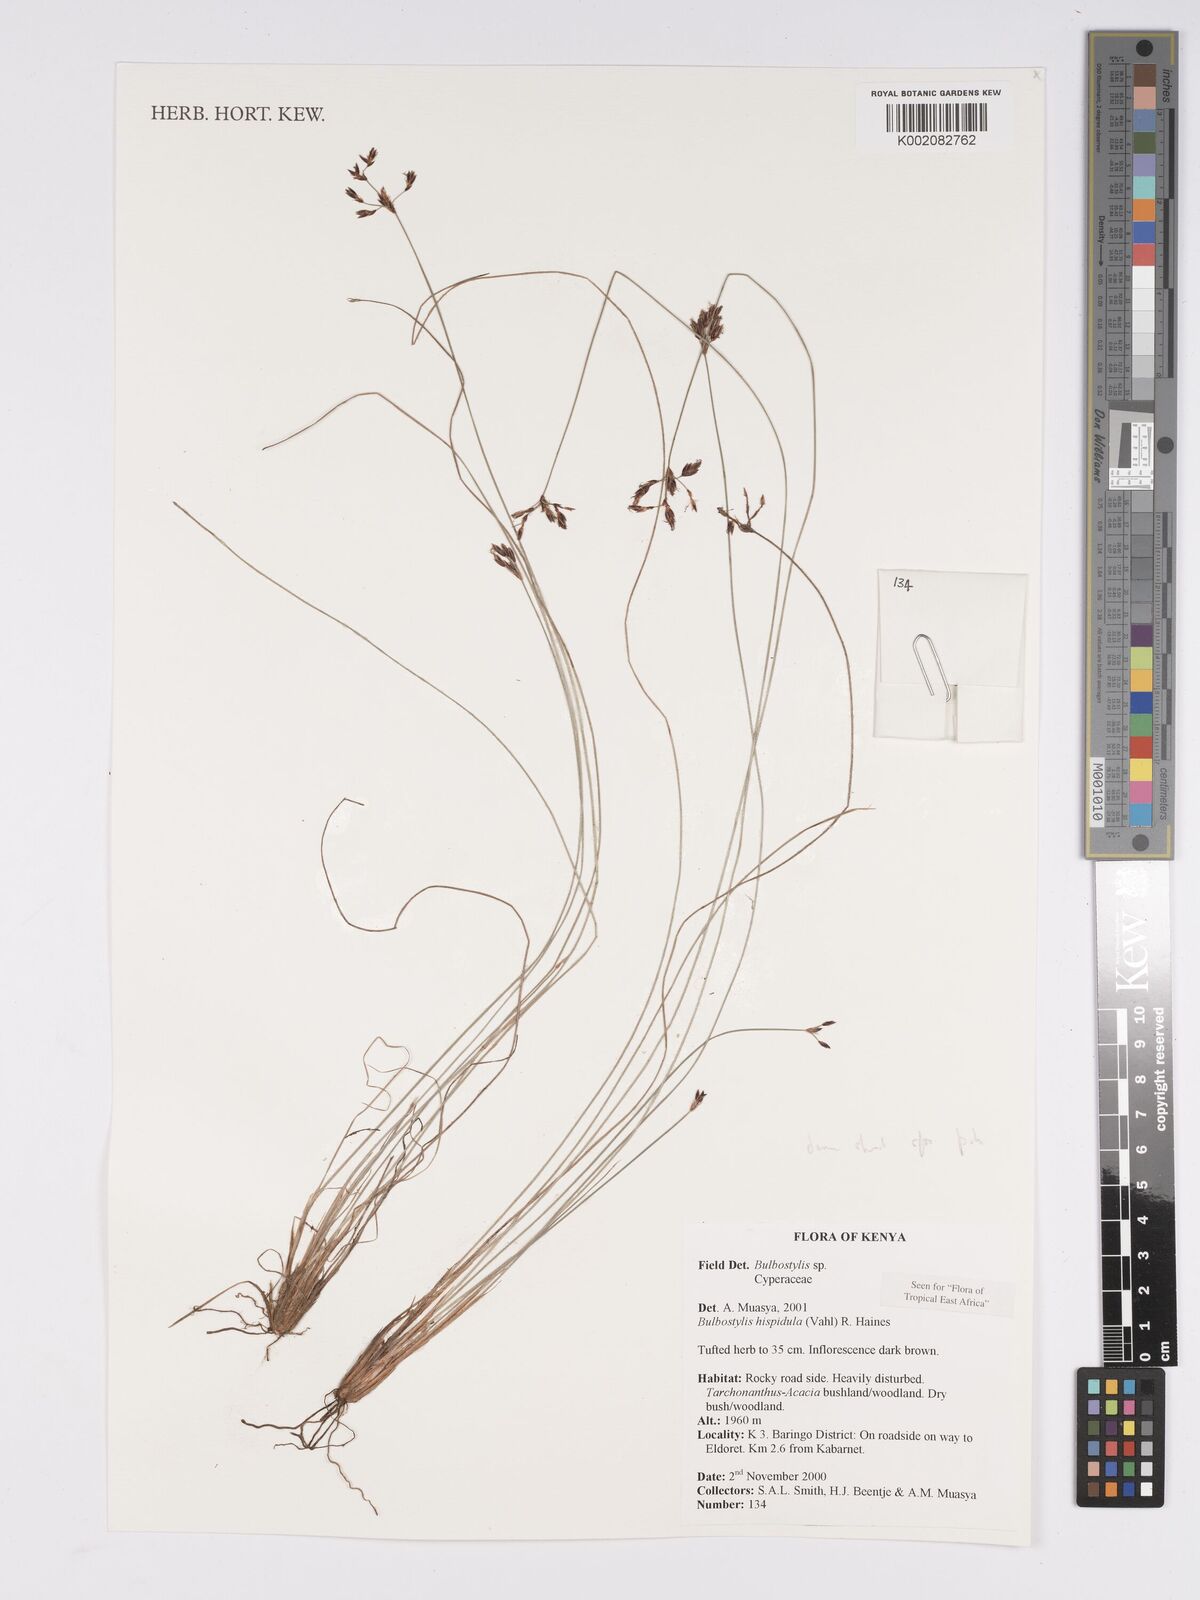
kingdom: Plantae
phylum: Tracheophyta
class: Liliopsida
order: Poales
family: Cyperaceae
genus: Bulbostylis
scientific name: Bulbostylis hispidula
